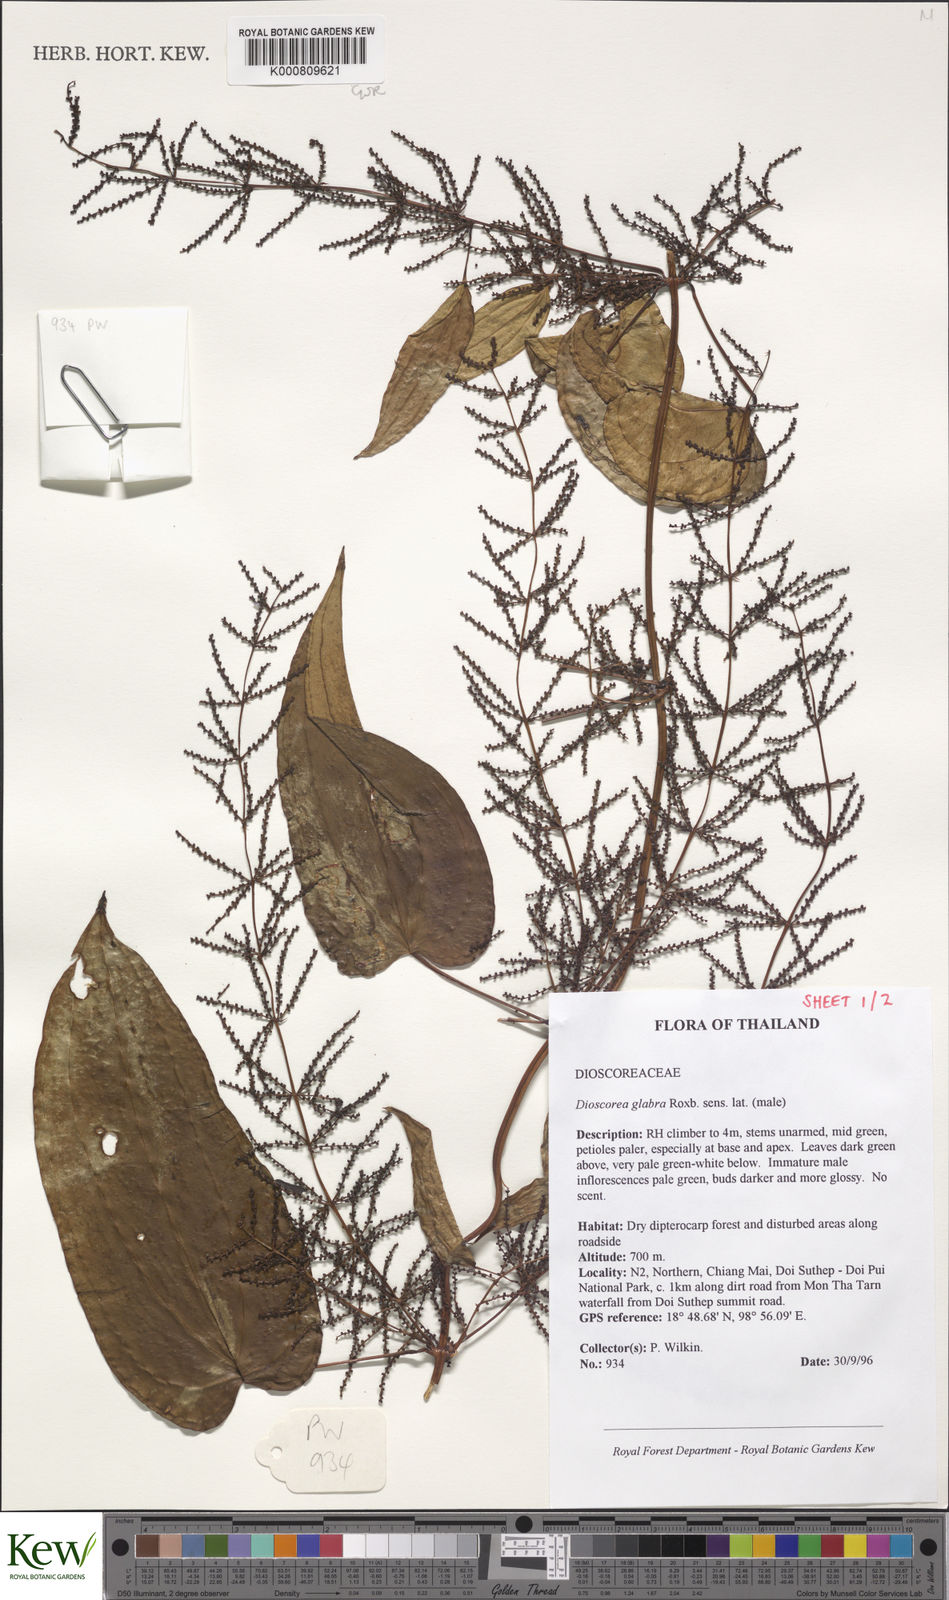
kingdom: Plantae
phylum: Tracheophyta
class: Liliopsida
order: Dioscoreales
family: Dioscoreaceae
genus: Dioscorea
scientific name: Dioscorea glabra
